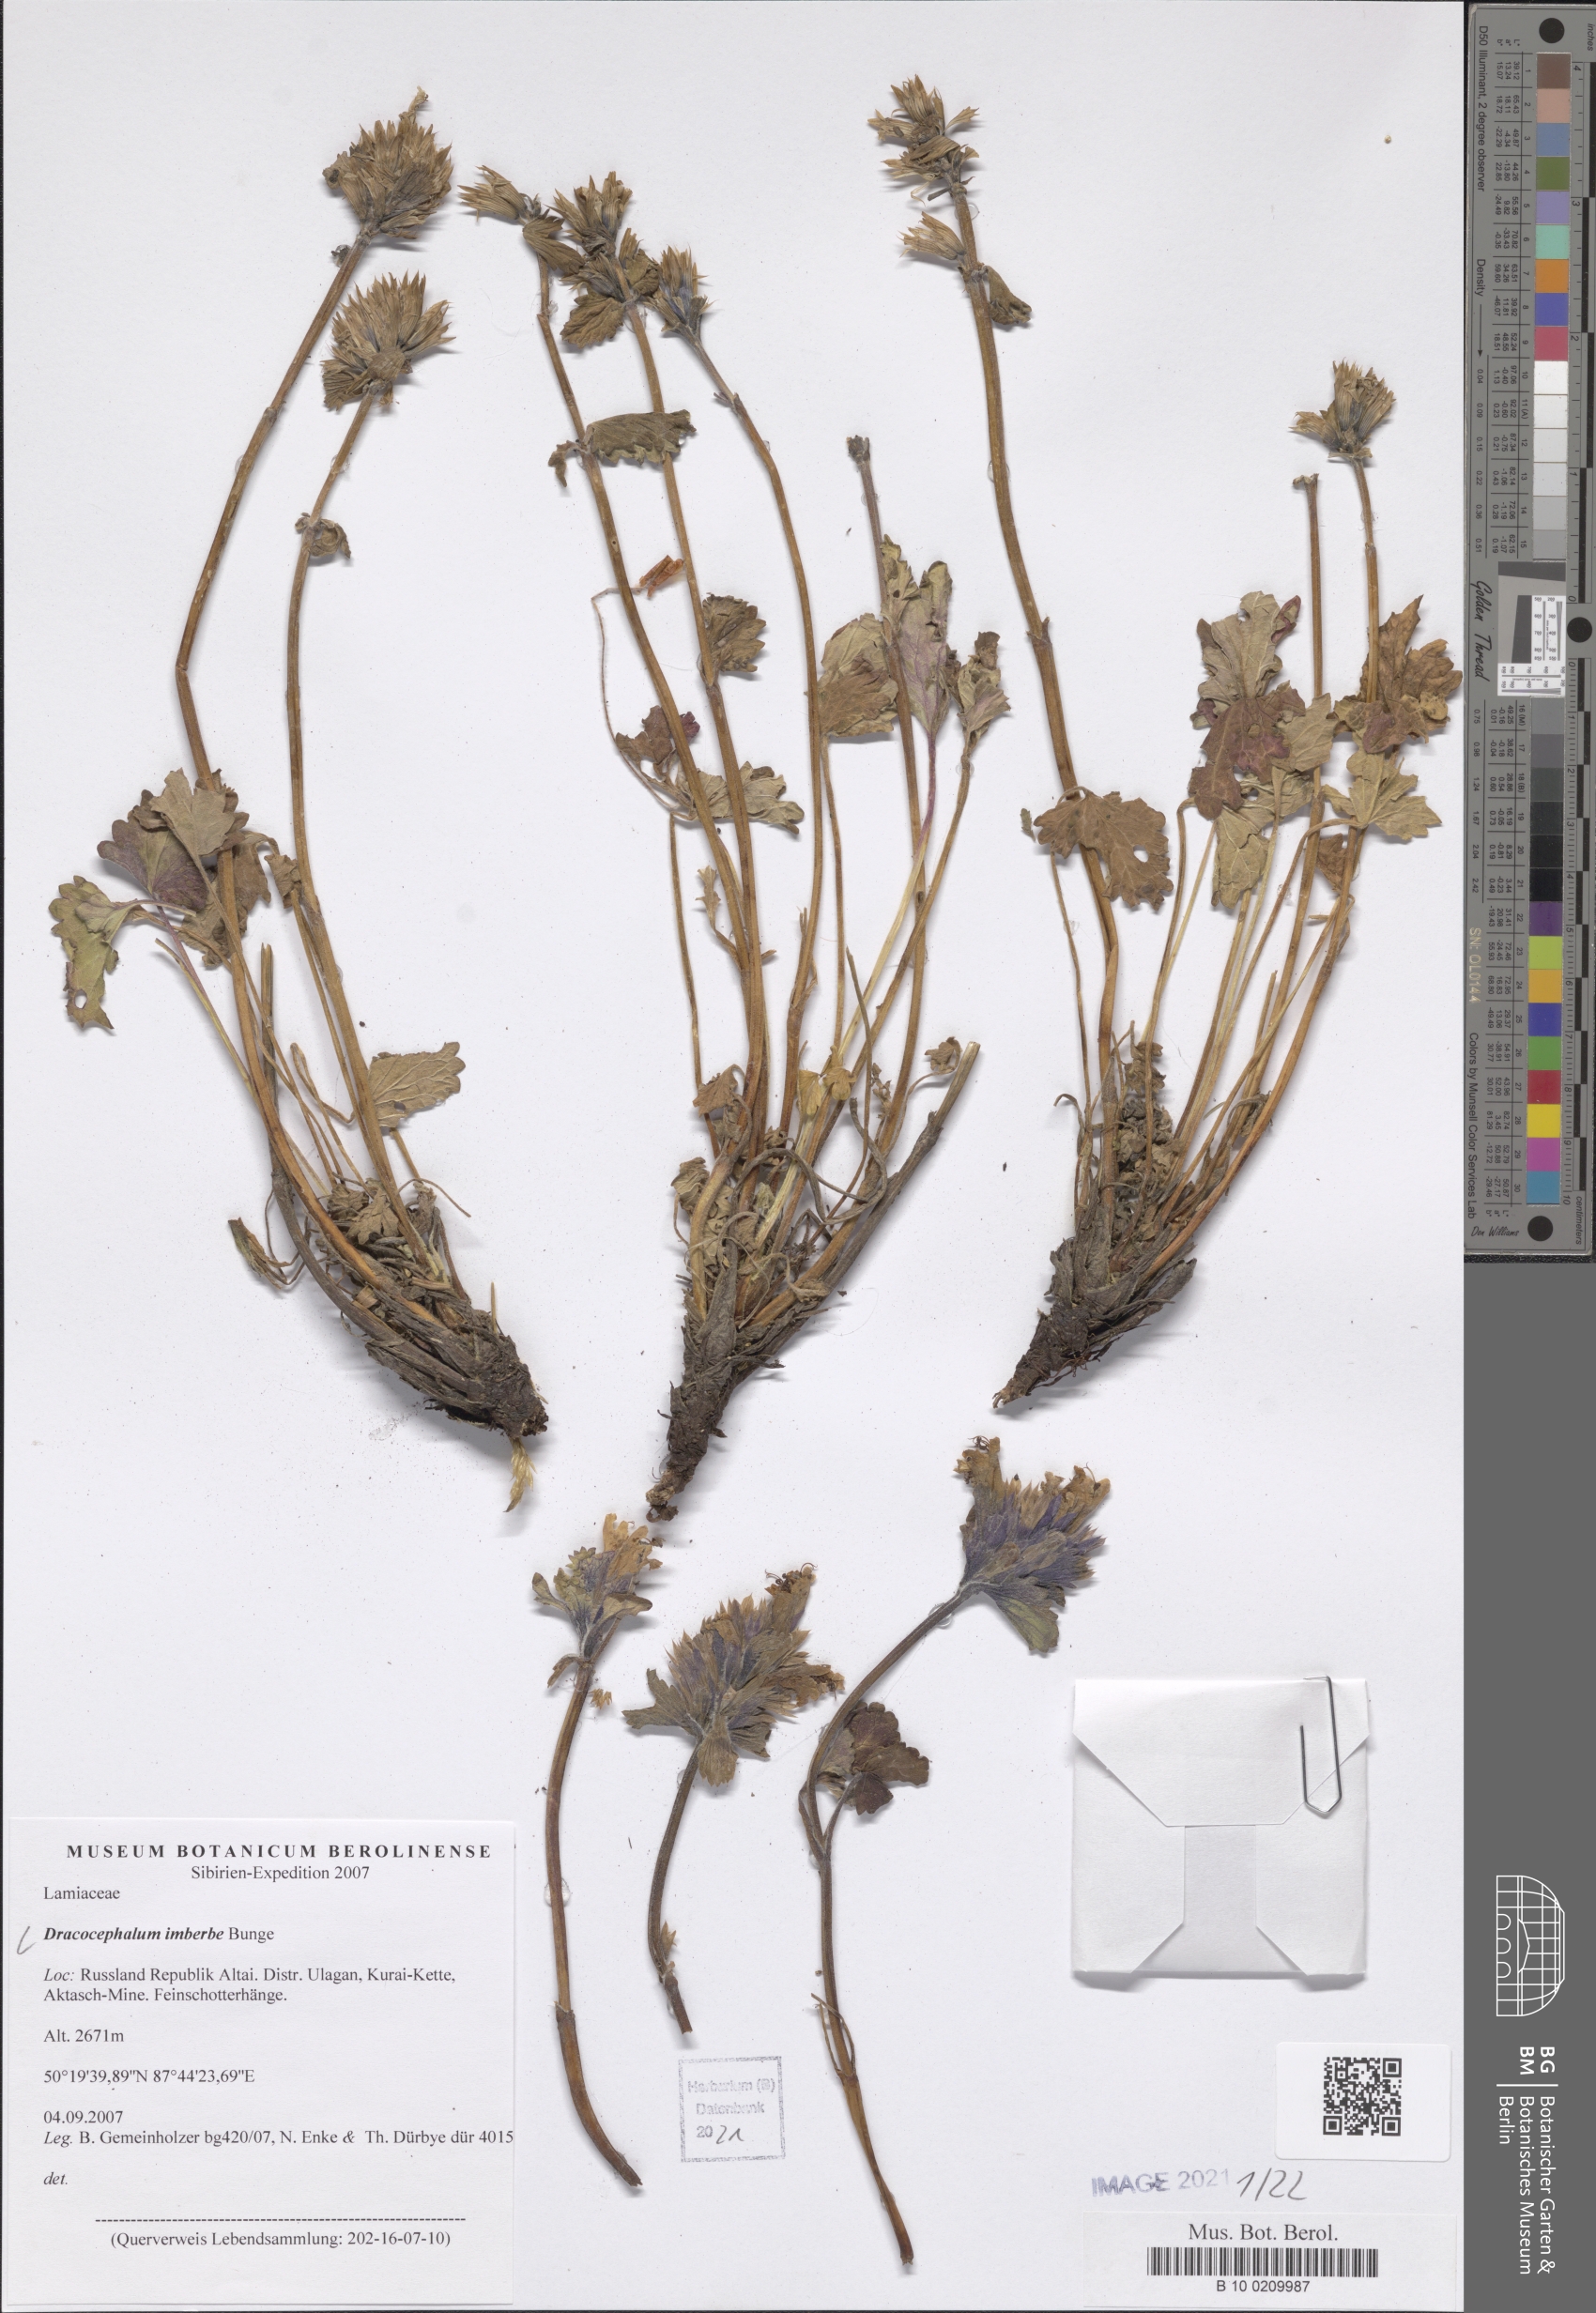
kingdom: Plantae
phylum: Tracheophyta
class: Magnoliopsida
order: Lamiales
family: Lamiaceae
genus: Dracocephalum
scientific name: Dracocephalum imberbe
